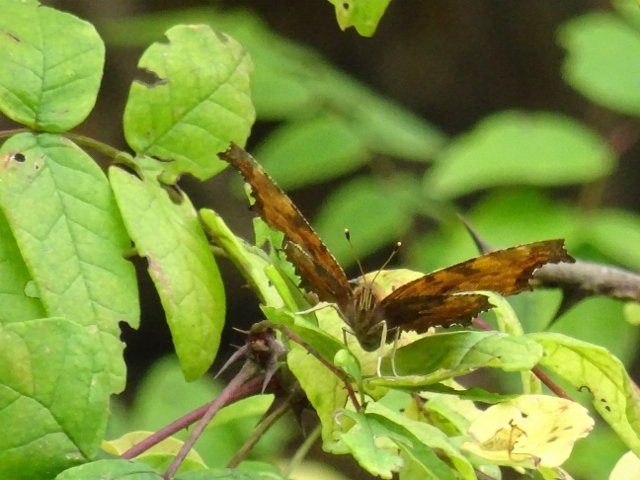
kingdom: Animalia
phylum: Arthropoda
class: Insecta
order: Lepidoptera
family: Nymphalidae
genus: Polygonia
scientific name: Polygonia
